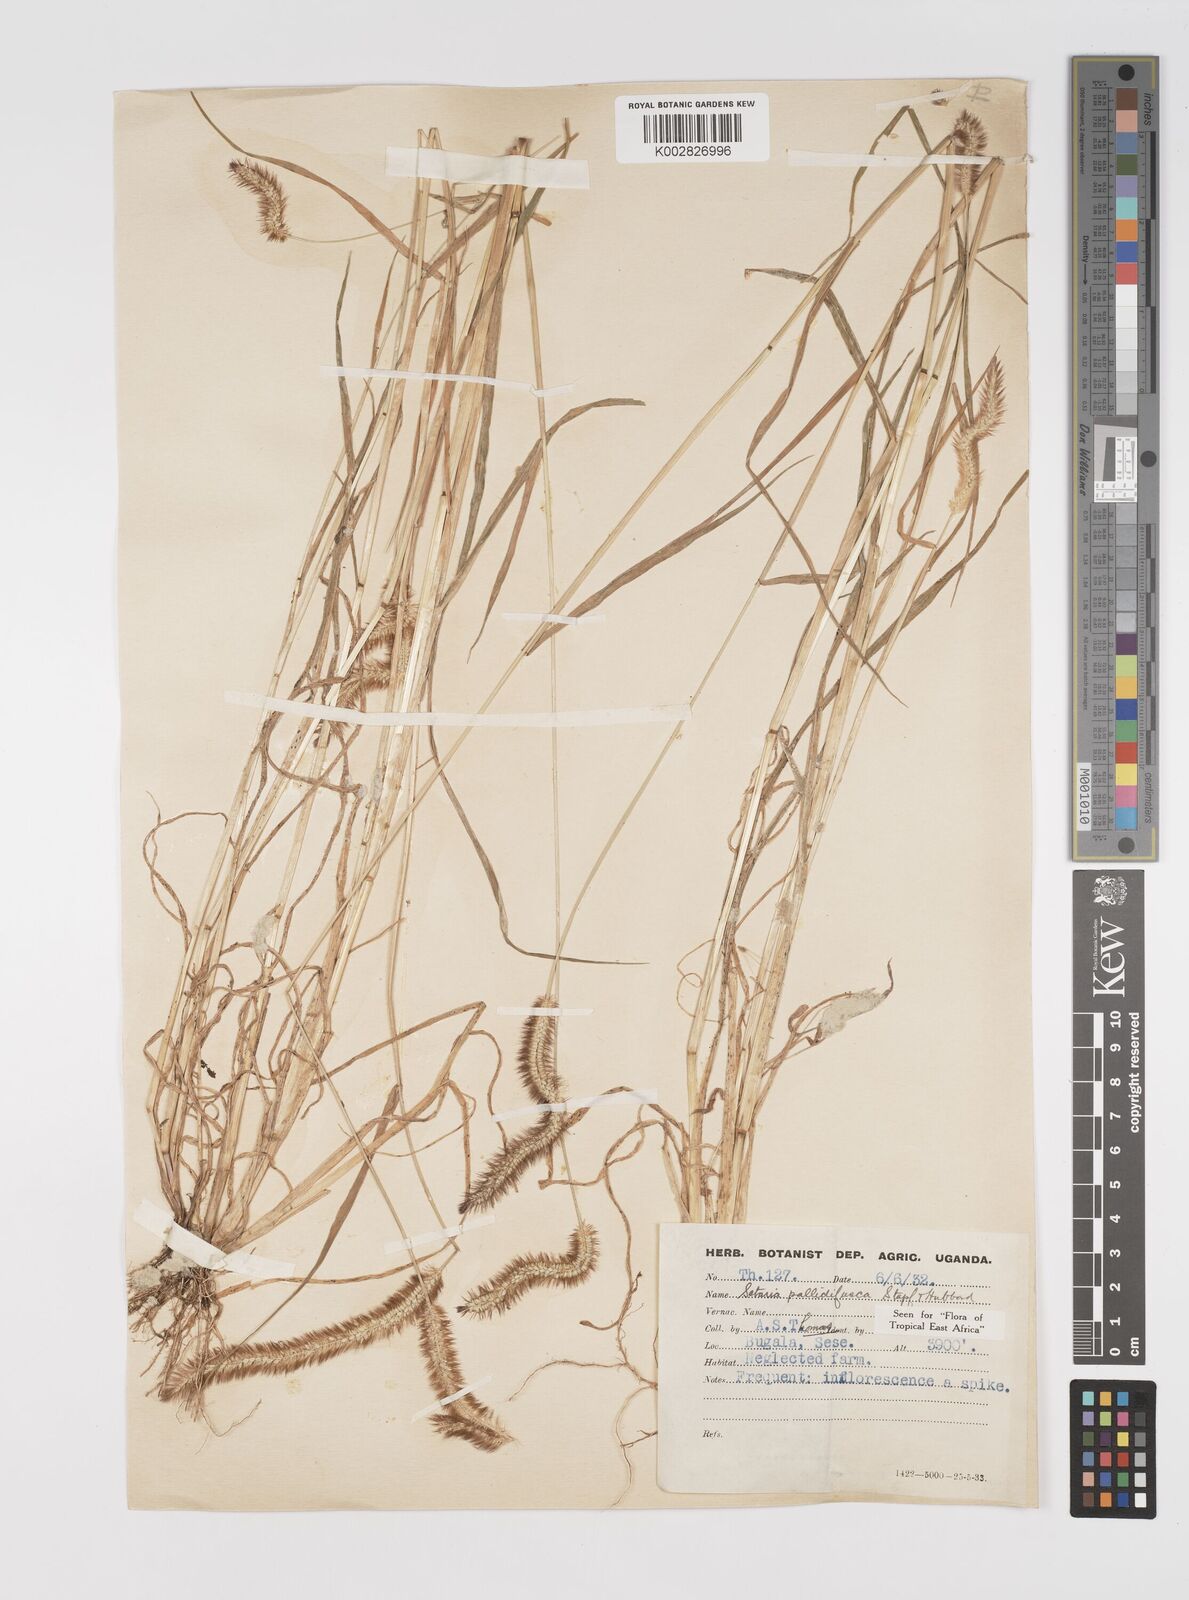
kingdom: Plantae
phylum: Tracheophyta
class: Liliopsida
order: Poales
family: Poaceae
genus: Setaria
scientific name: Setaria pumila
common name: Yellow bristle-grass
